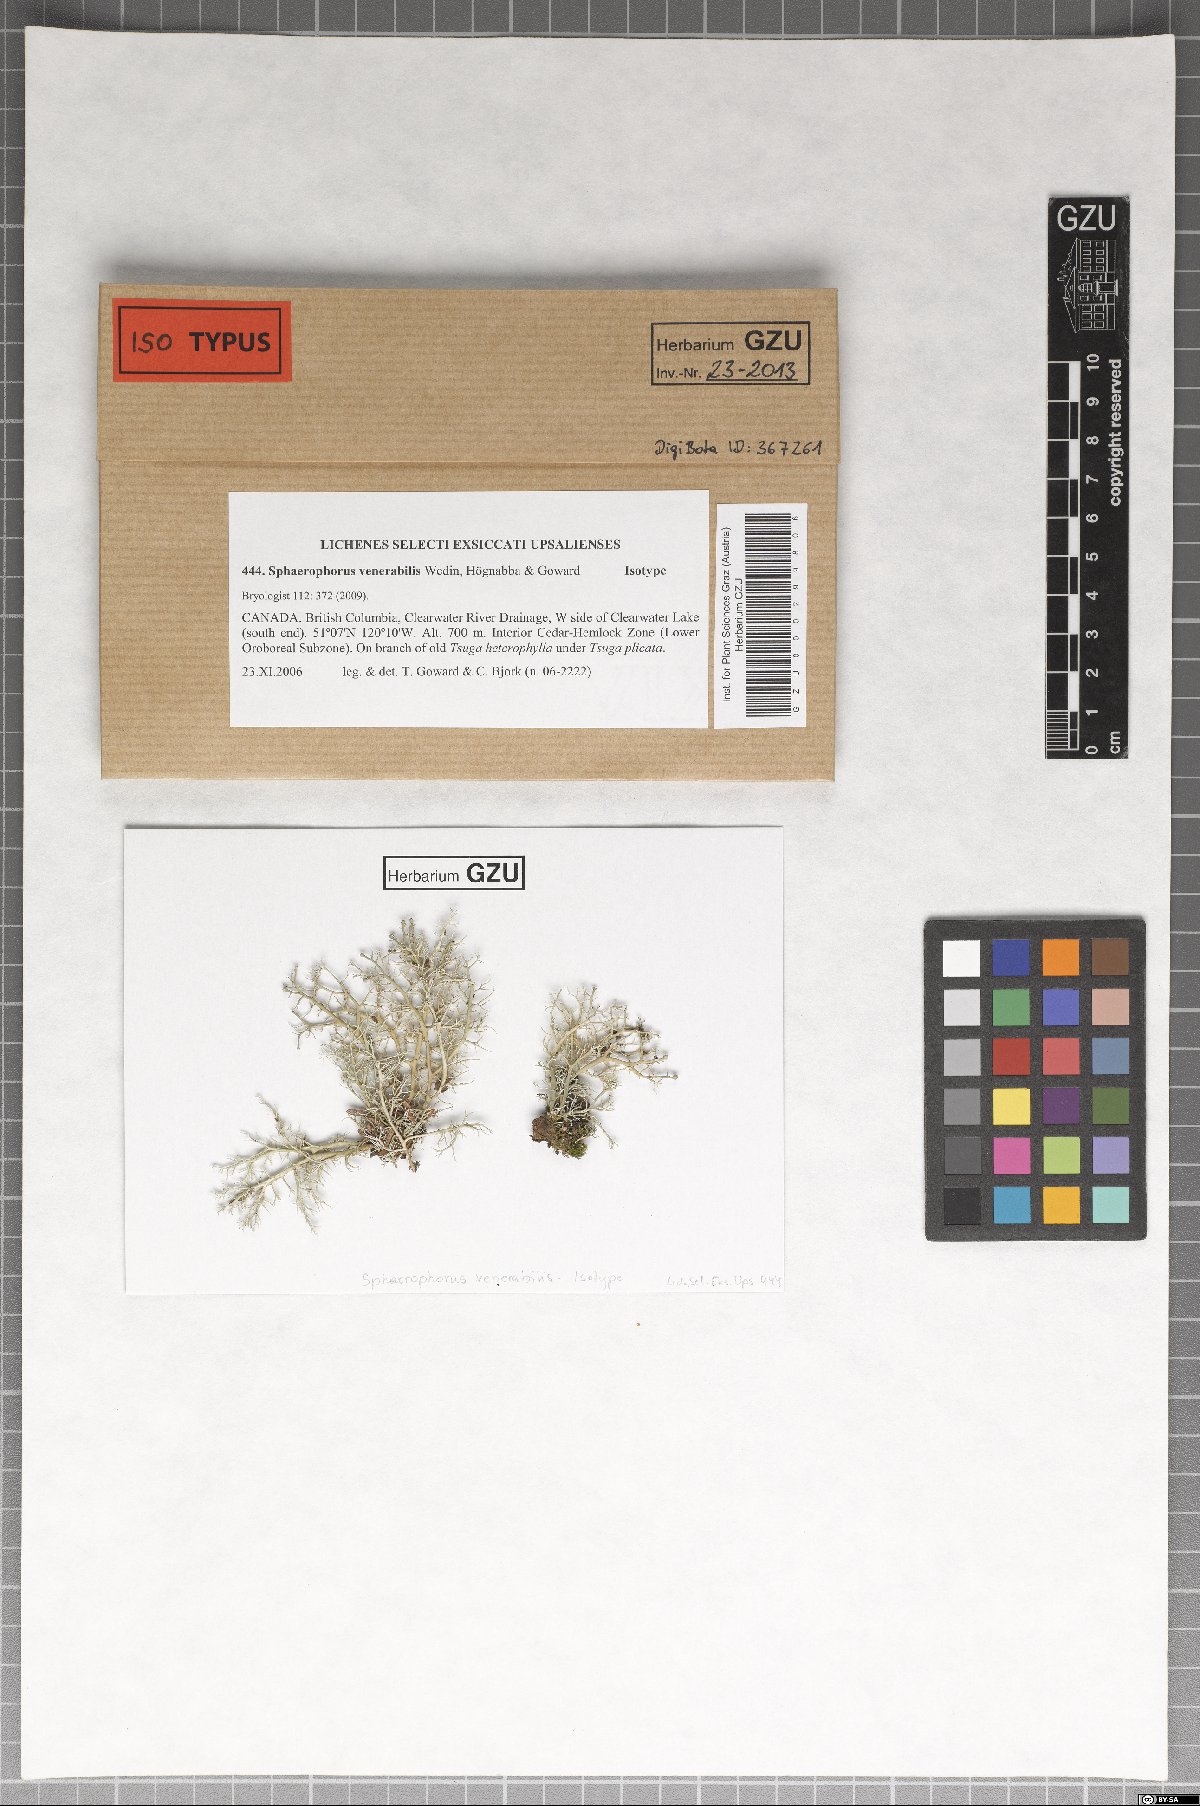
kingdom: Fungi
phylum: Ascomycota
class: Lecanoromycetes
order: Lecanorales
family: Sphaerophoraceae
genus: Sphaerophorus
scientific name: Sphaerophorus venerabilis
